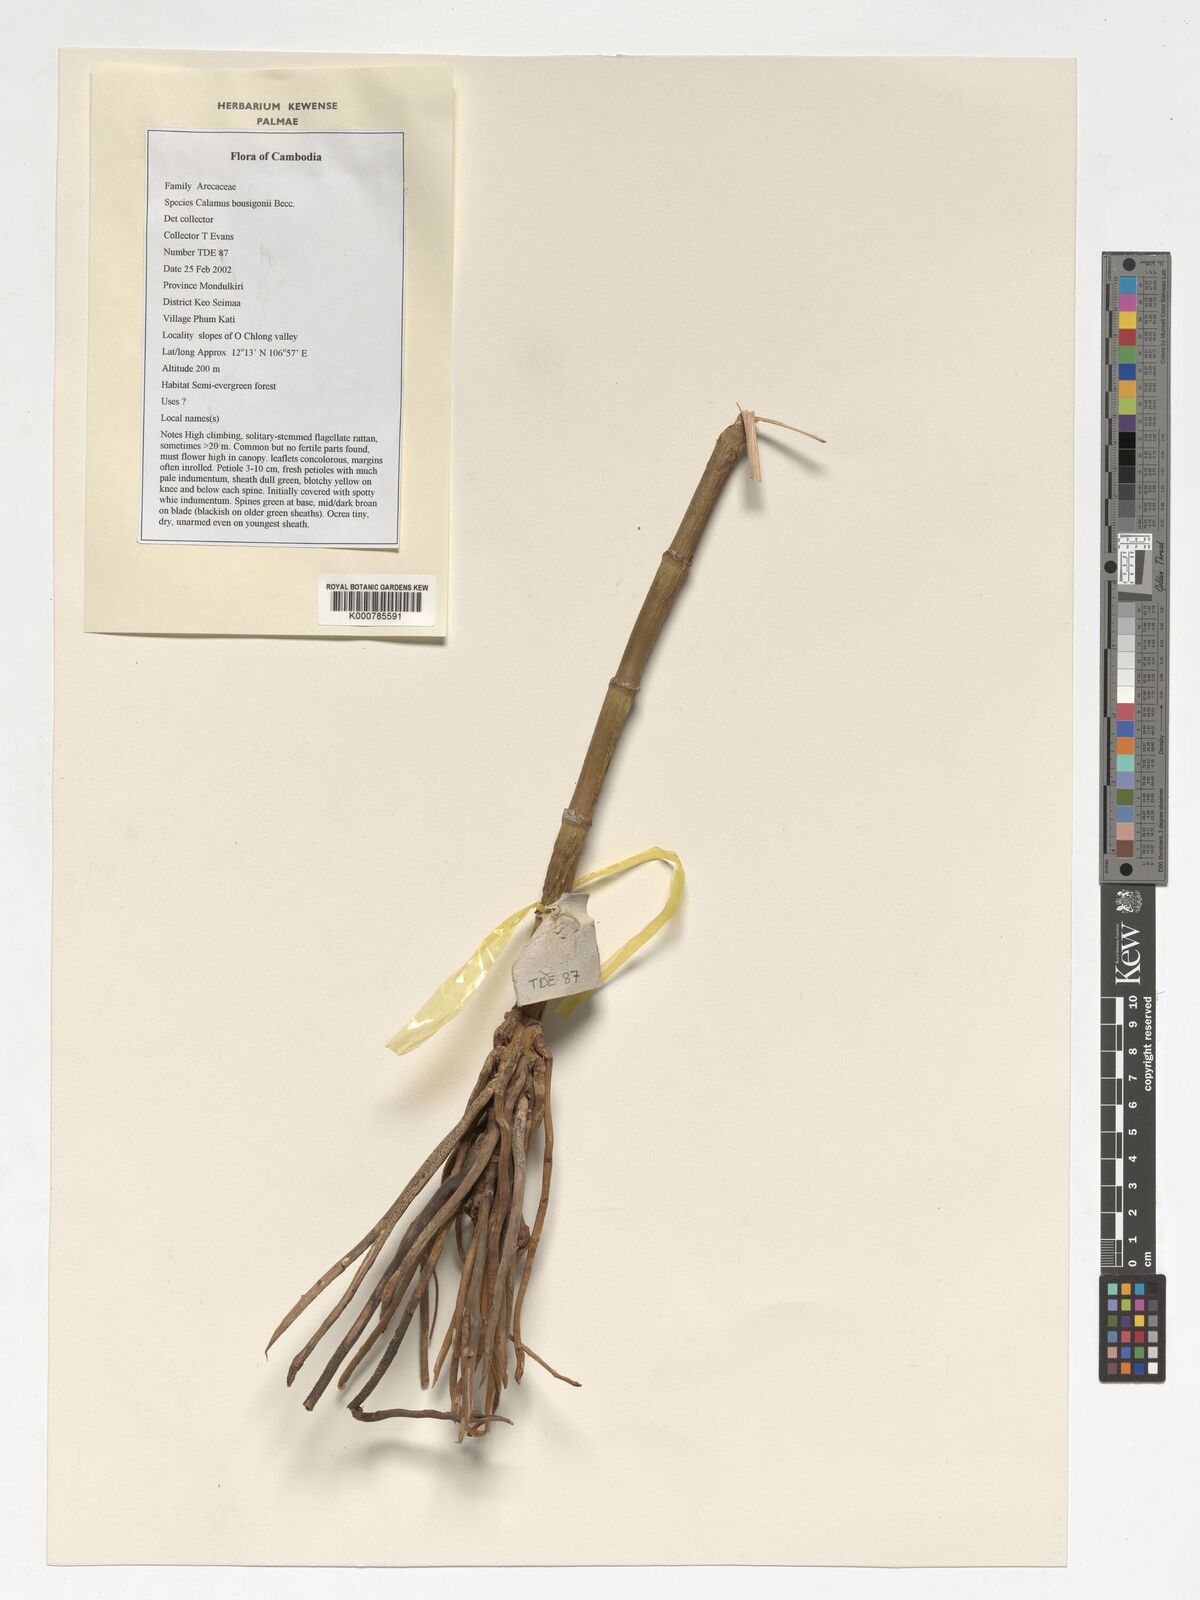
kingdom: Plantae
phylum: Tracheophyta
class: Liliopsida
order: Arecales
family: Arecaceae
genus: Calamus
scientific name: Calamus bousigonii
